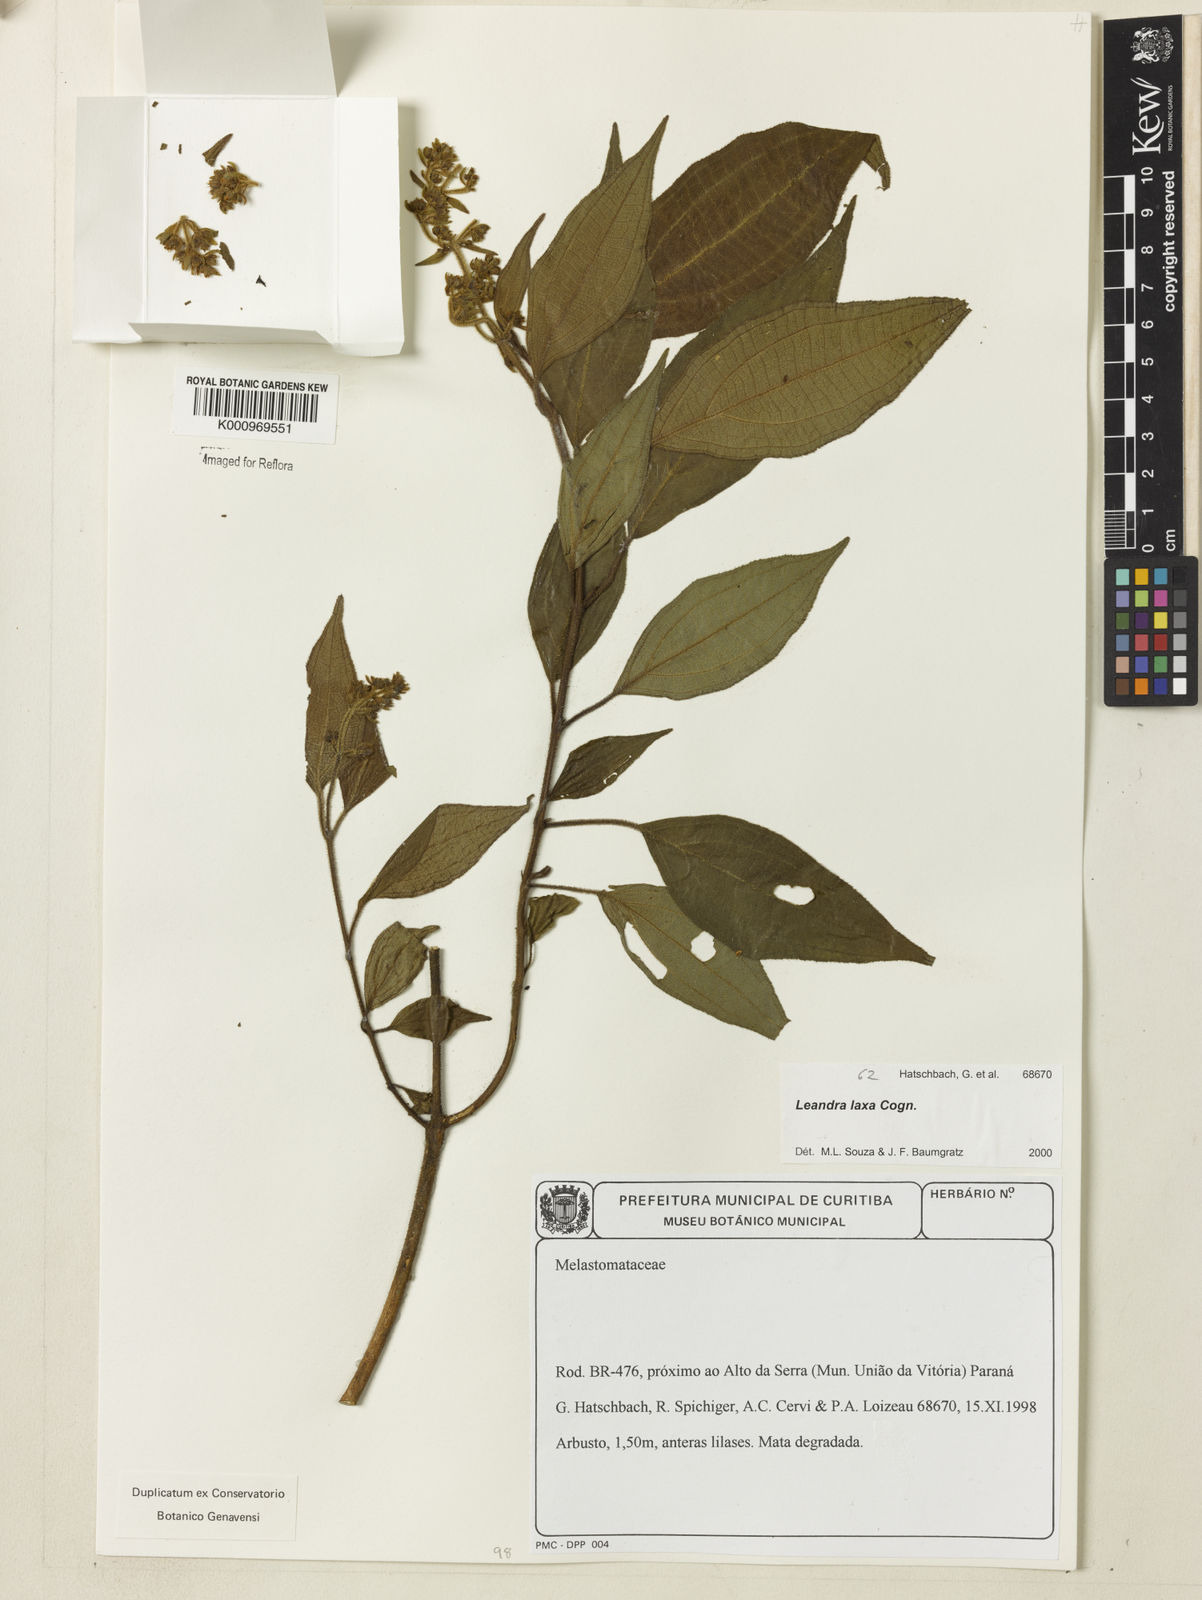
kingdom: Plantae
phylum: Tracheophyta
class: Magnoliopsida
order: Myrtales
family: Melastomataceae
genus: Miconia
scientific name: Miconia leaeriocalyx
